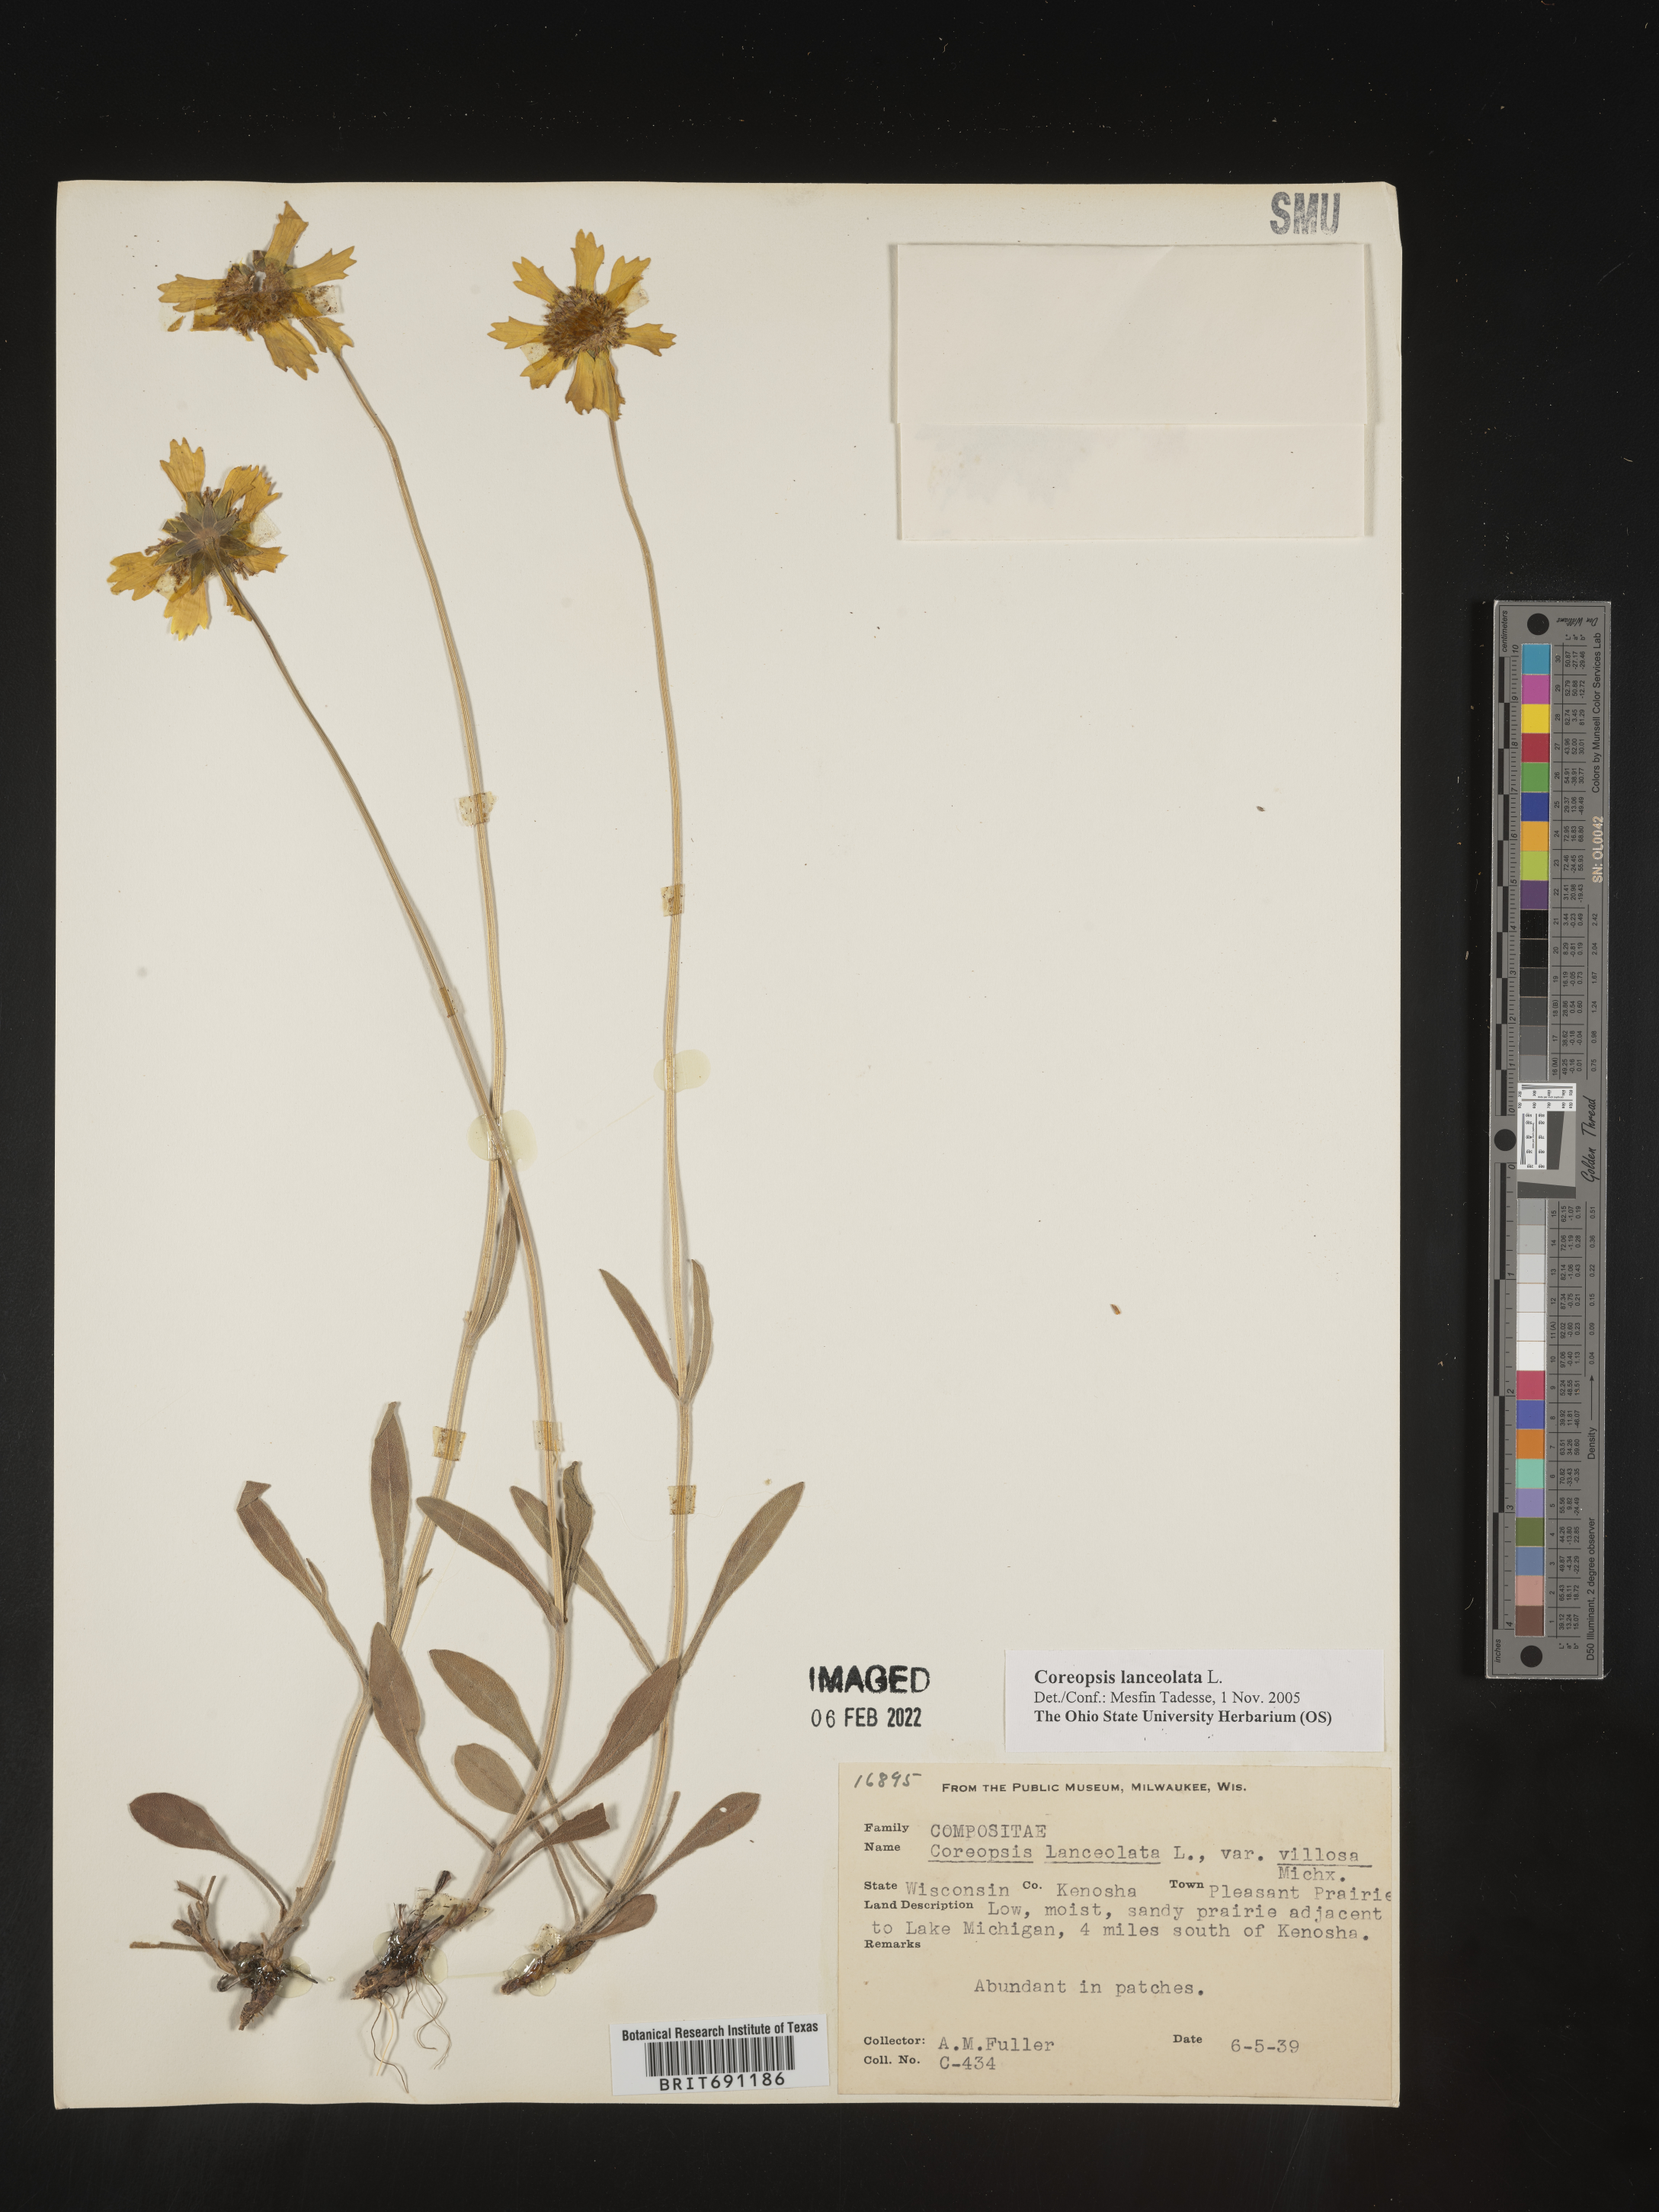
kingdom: Plantae
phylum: Tracheophyta
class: Magnoliopsida
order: Asterales
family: Asteraceae
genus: Coreopsis
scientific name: Coreopsis lanceolata
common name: Garden coreopsis
